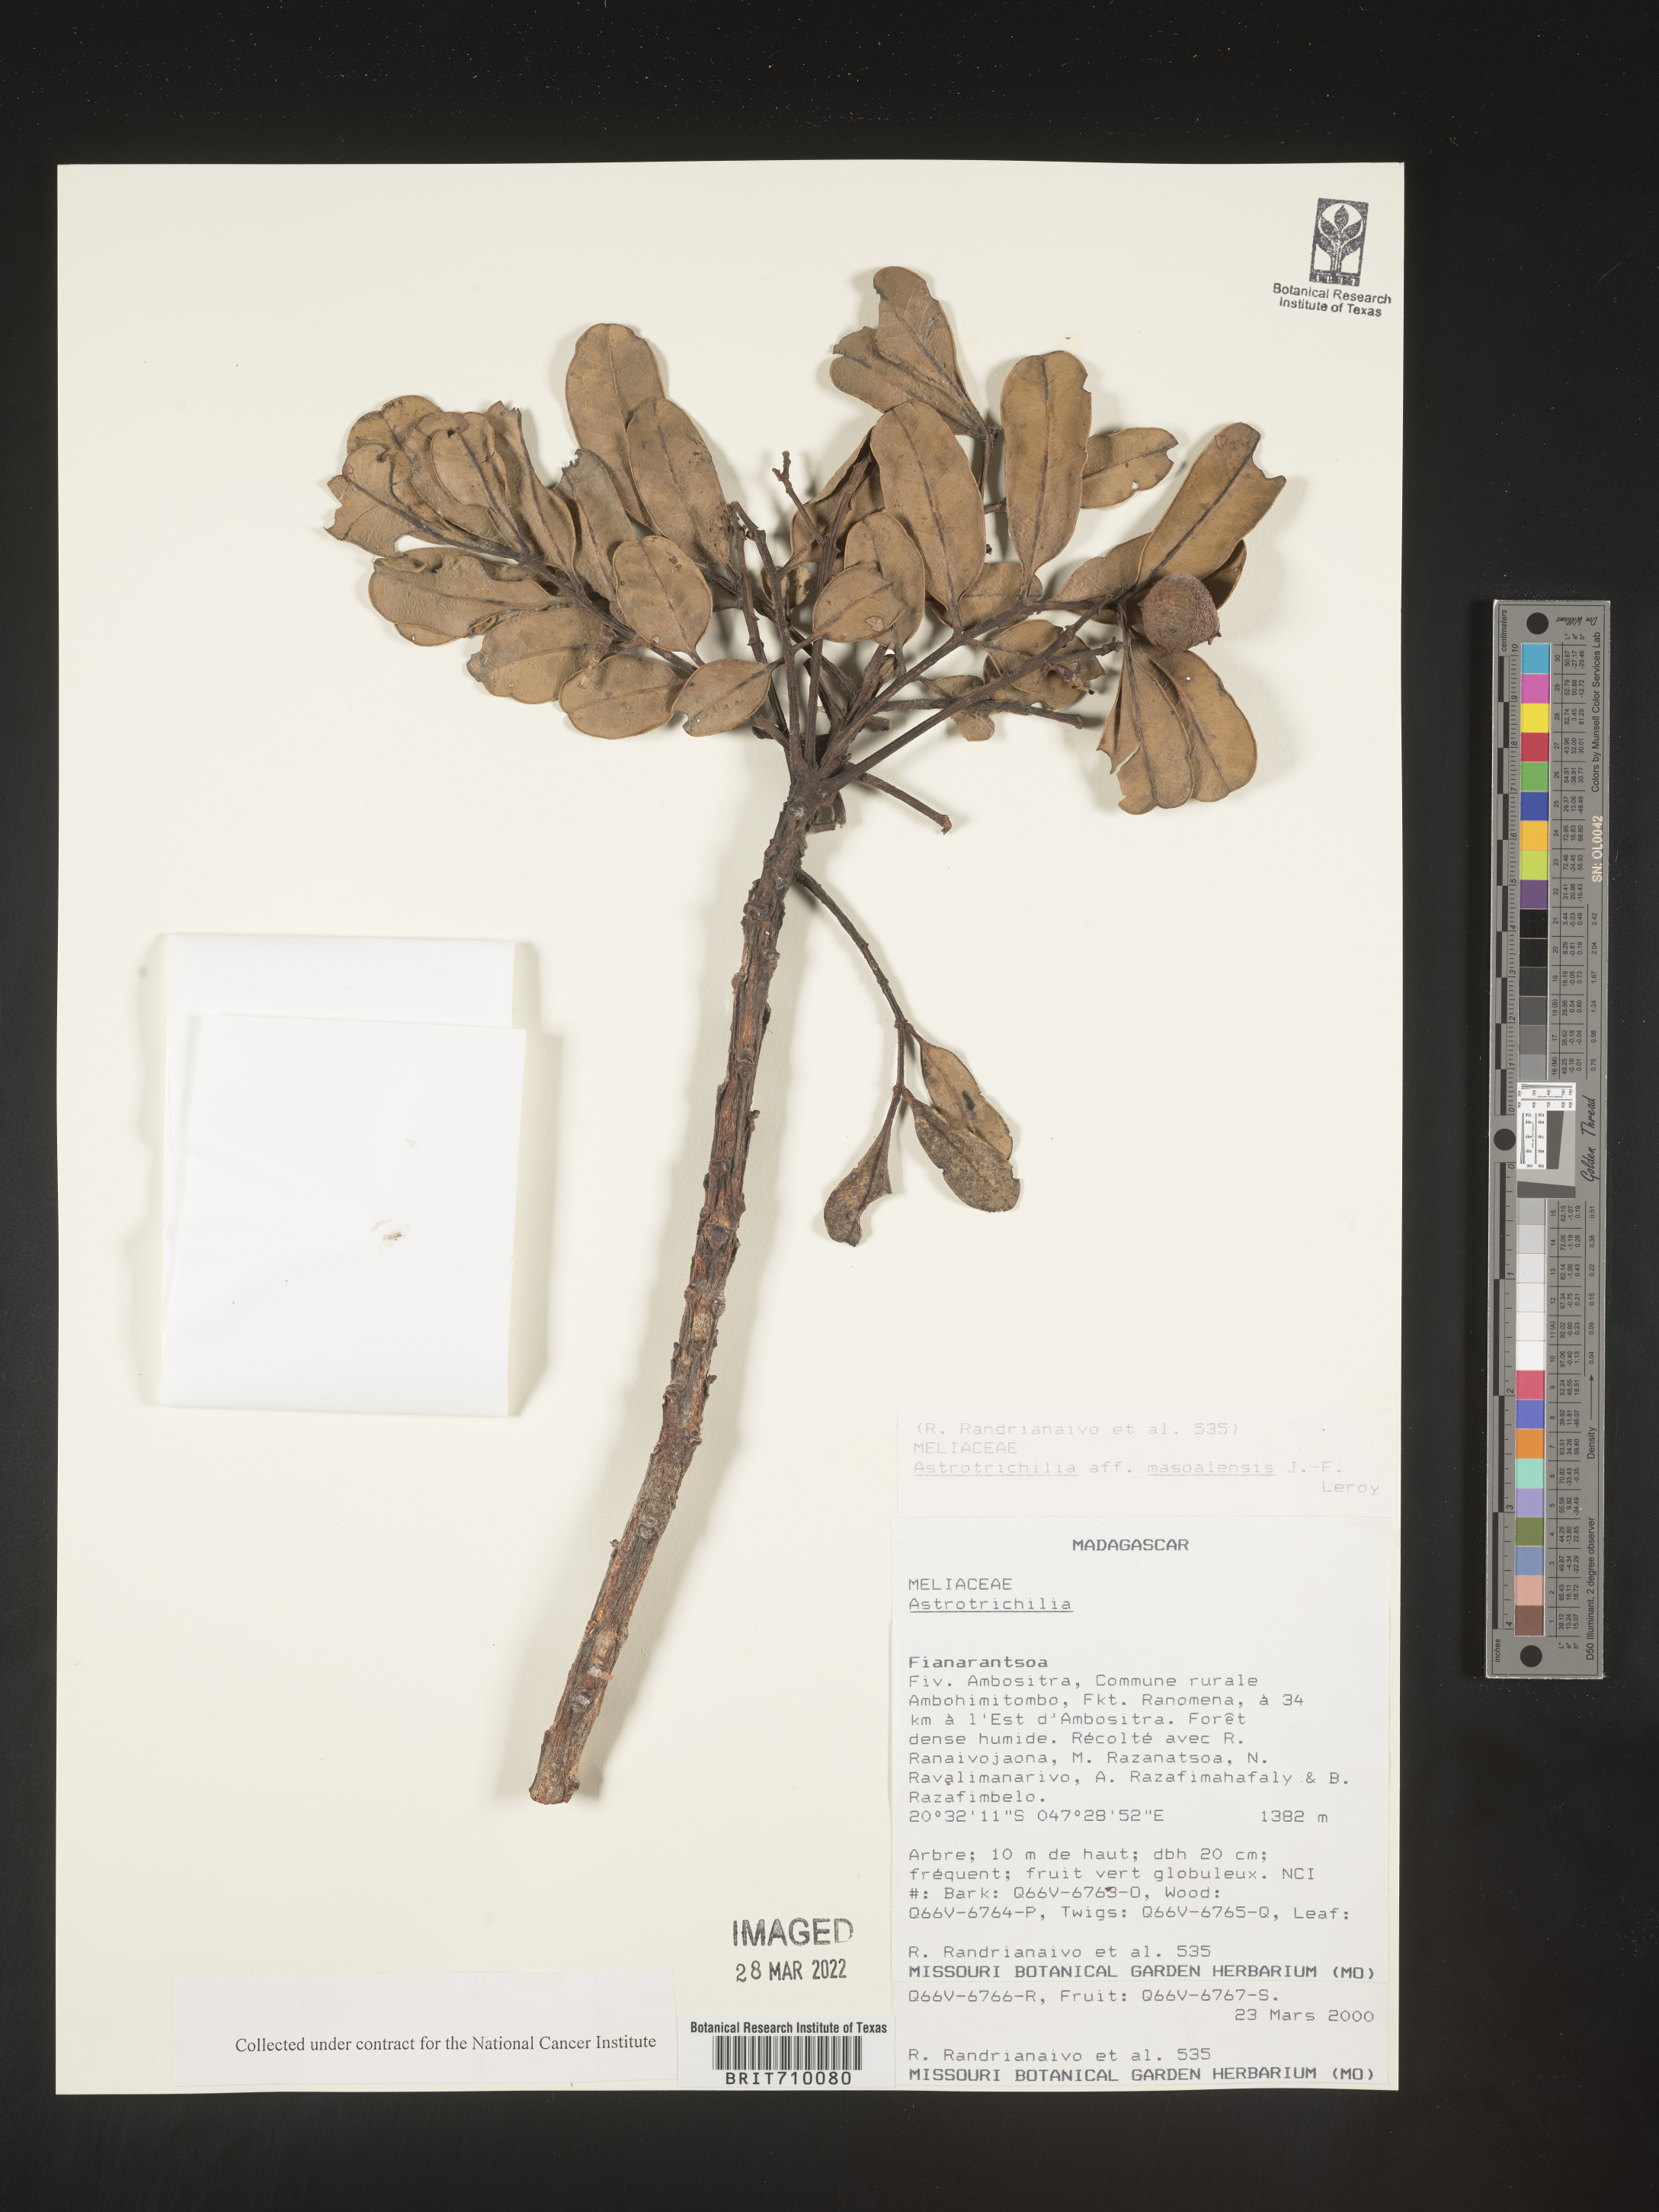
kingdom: Plantae
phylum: Tracheophyta
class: Magnoliopsida
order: Sapindales
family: Meliaceae
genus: Astrotrichilia
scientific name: Astrotrichilia
